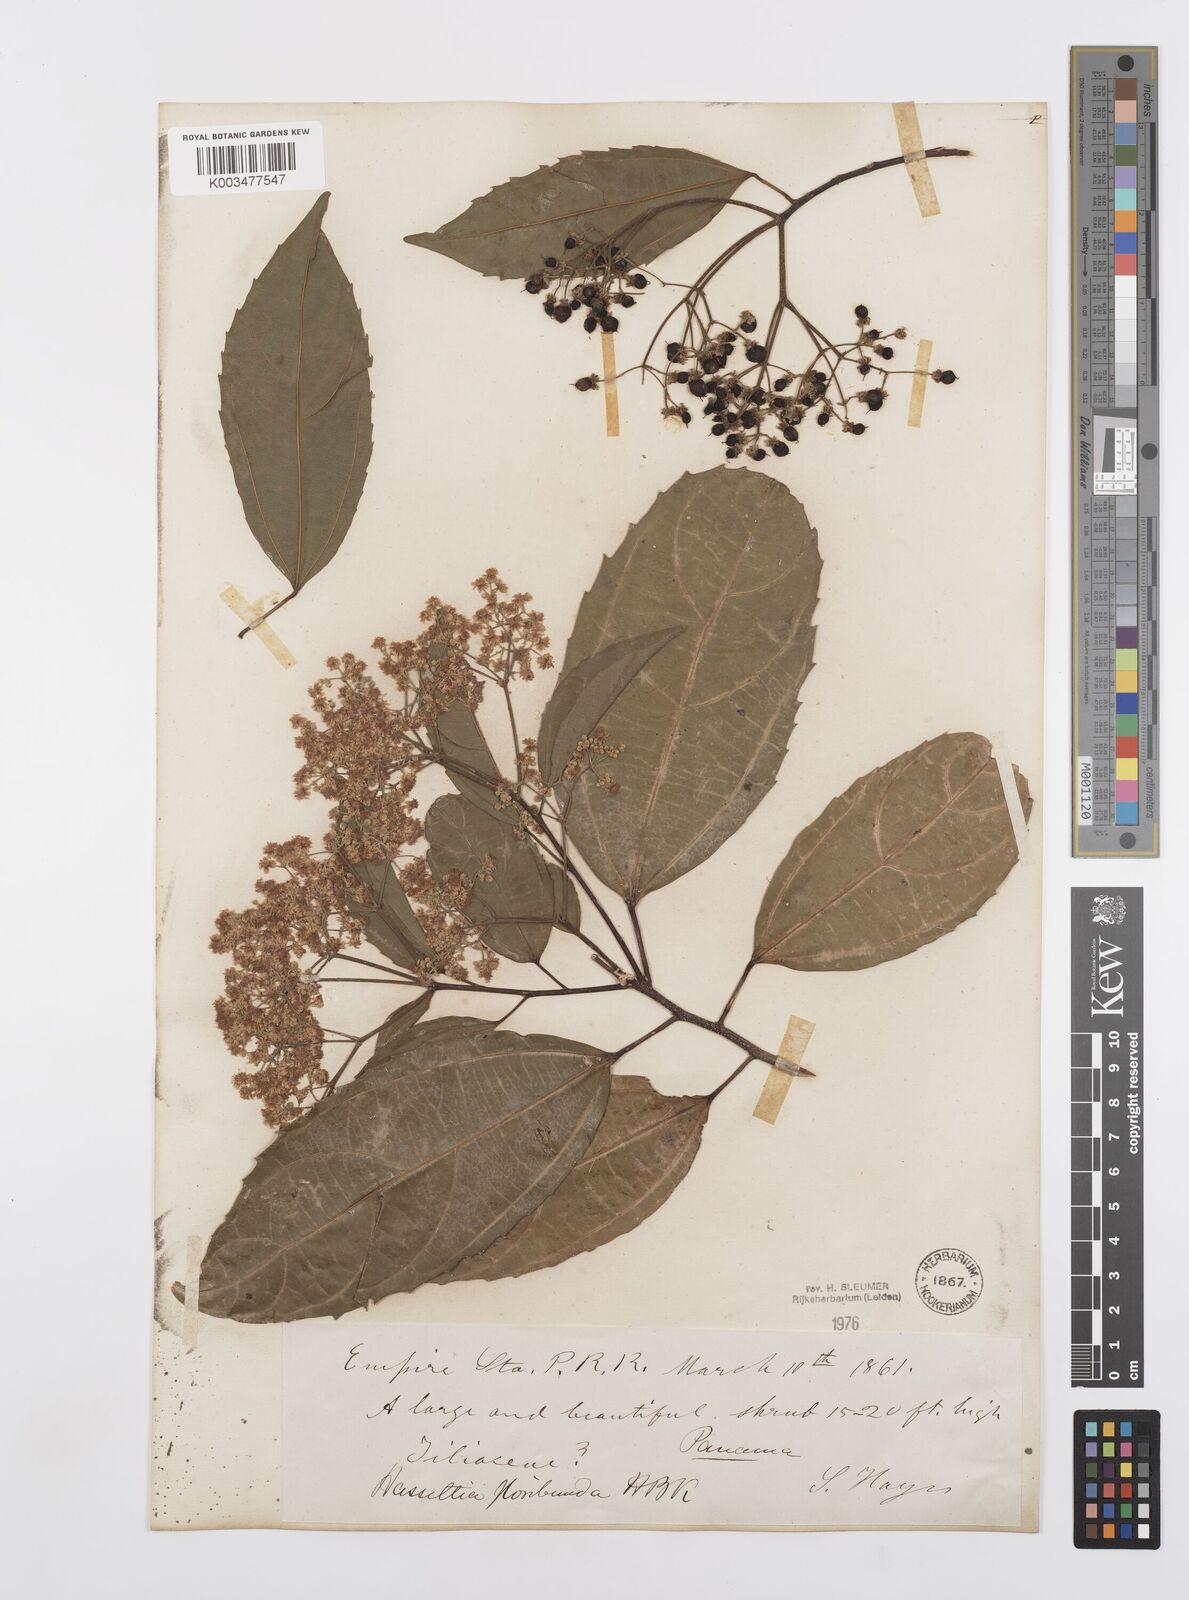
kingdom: Plantae
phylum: Tracheophyta
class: Magnoliopsida
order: Malpighiales
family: Salicaceae
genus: Hasseltia
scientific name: Hasseltia floribunda
